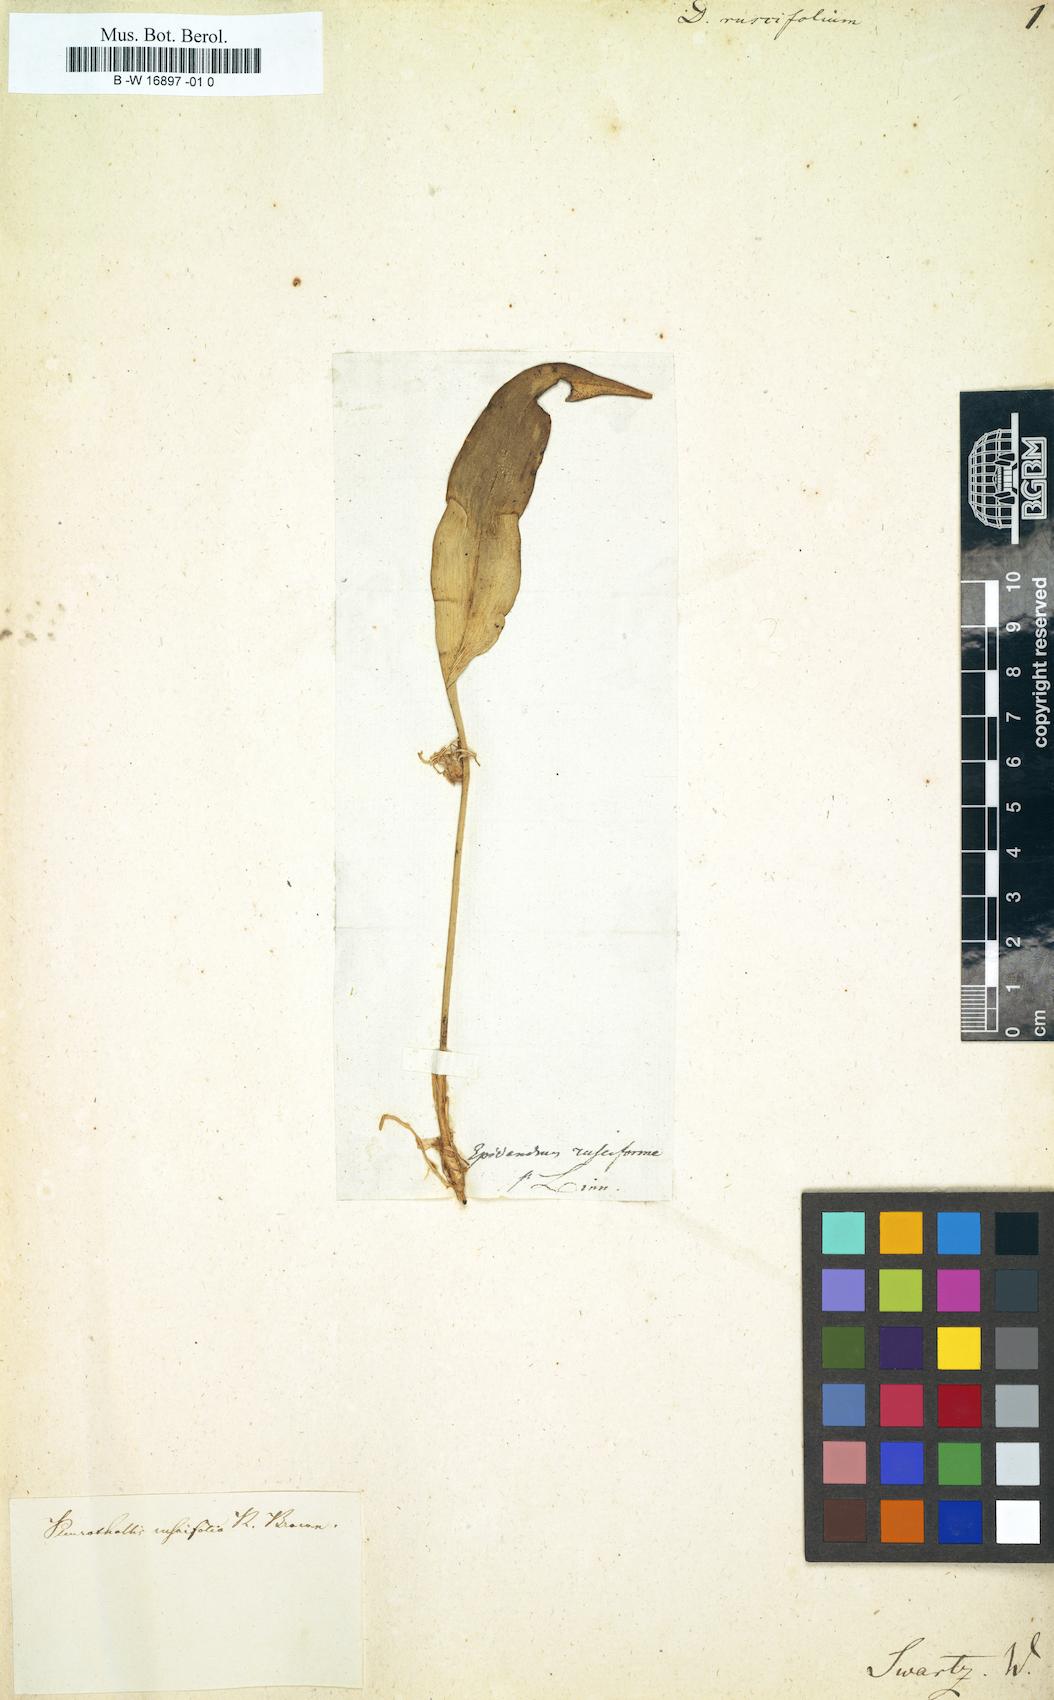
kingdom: Plantae
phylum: Tracheophyta
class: Liliopsida
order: Asparagales
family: Orchidaceae
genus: Pleurothallis
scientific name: Pleurothallis ruscifolia
